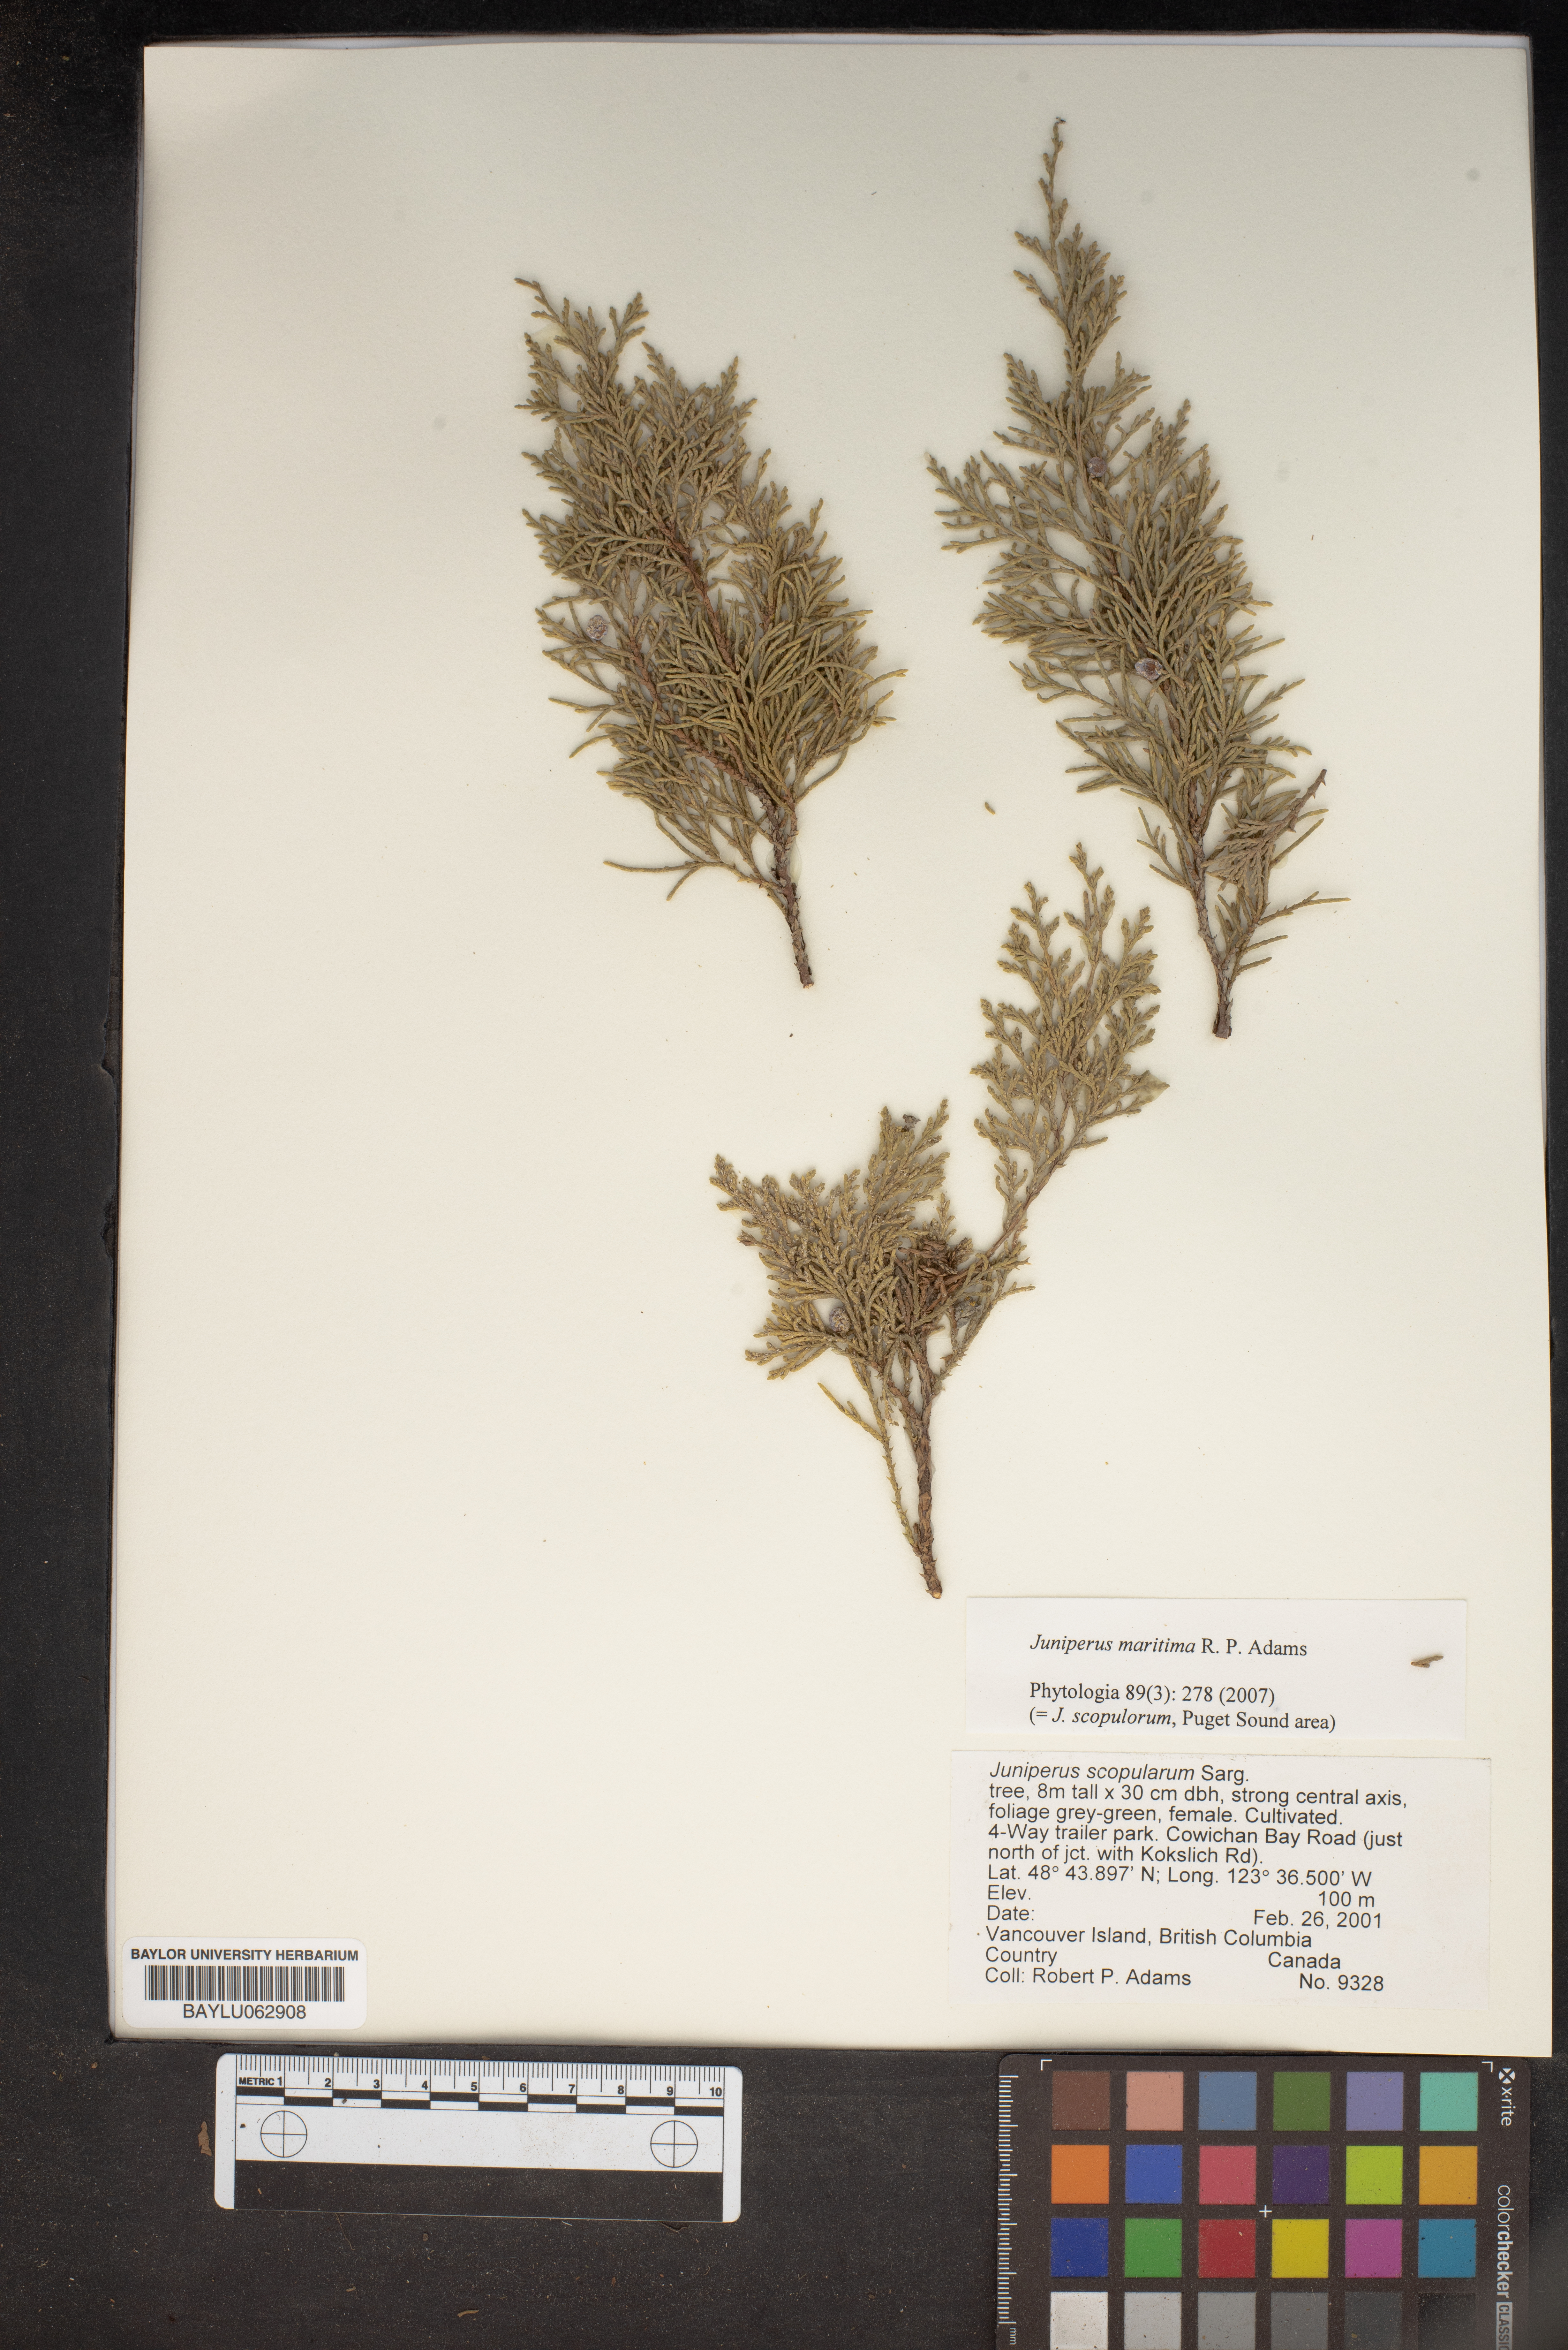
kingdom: Plantae
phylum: Tracheophyta
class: Pinopsida
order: Pinales
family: Cupressaceae
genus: Juniperus
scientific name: Juniperus scopulorum
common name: Rocky mountain juniper
